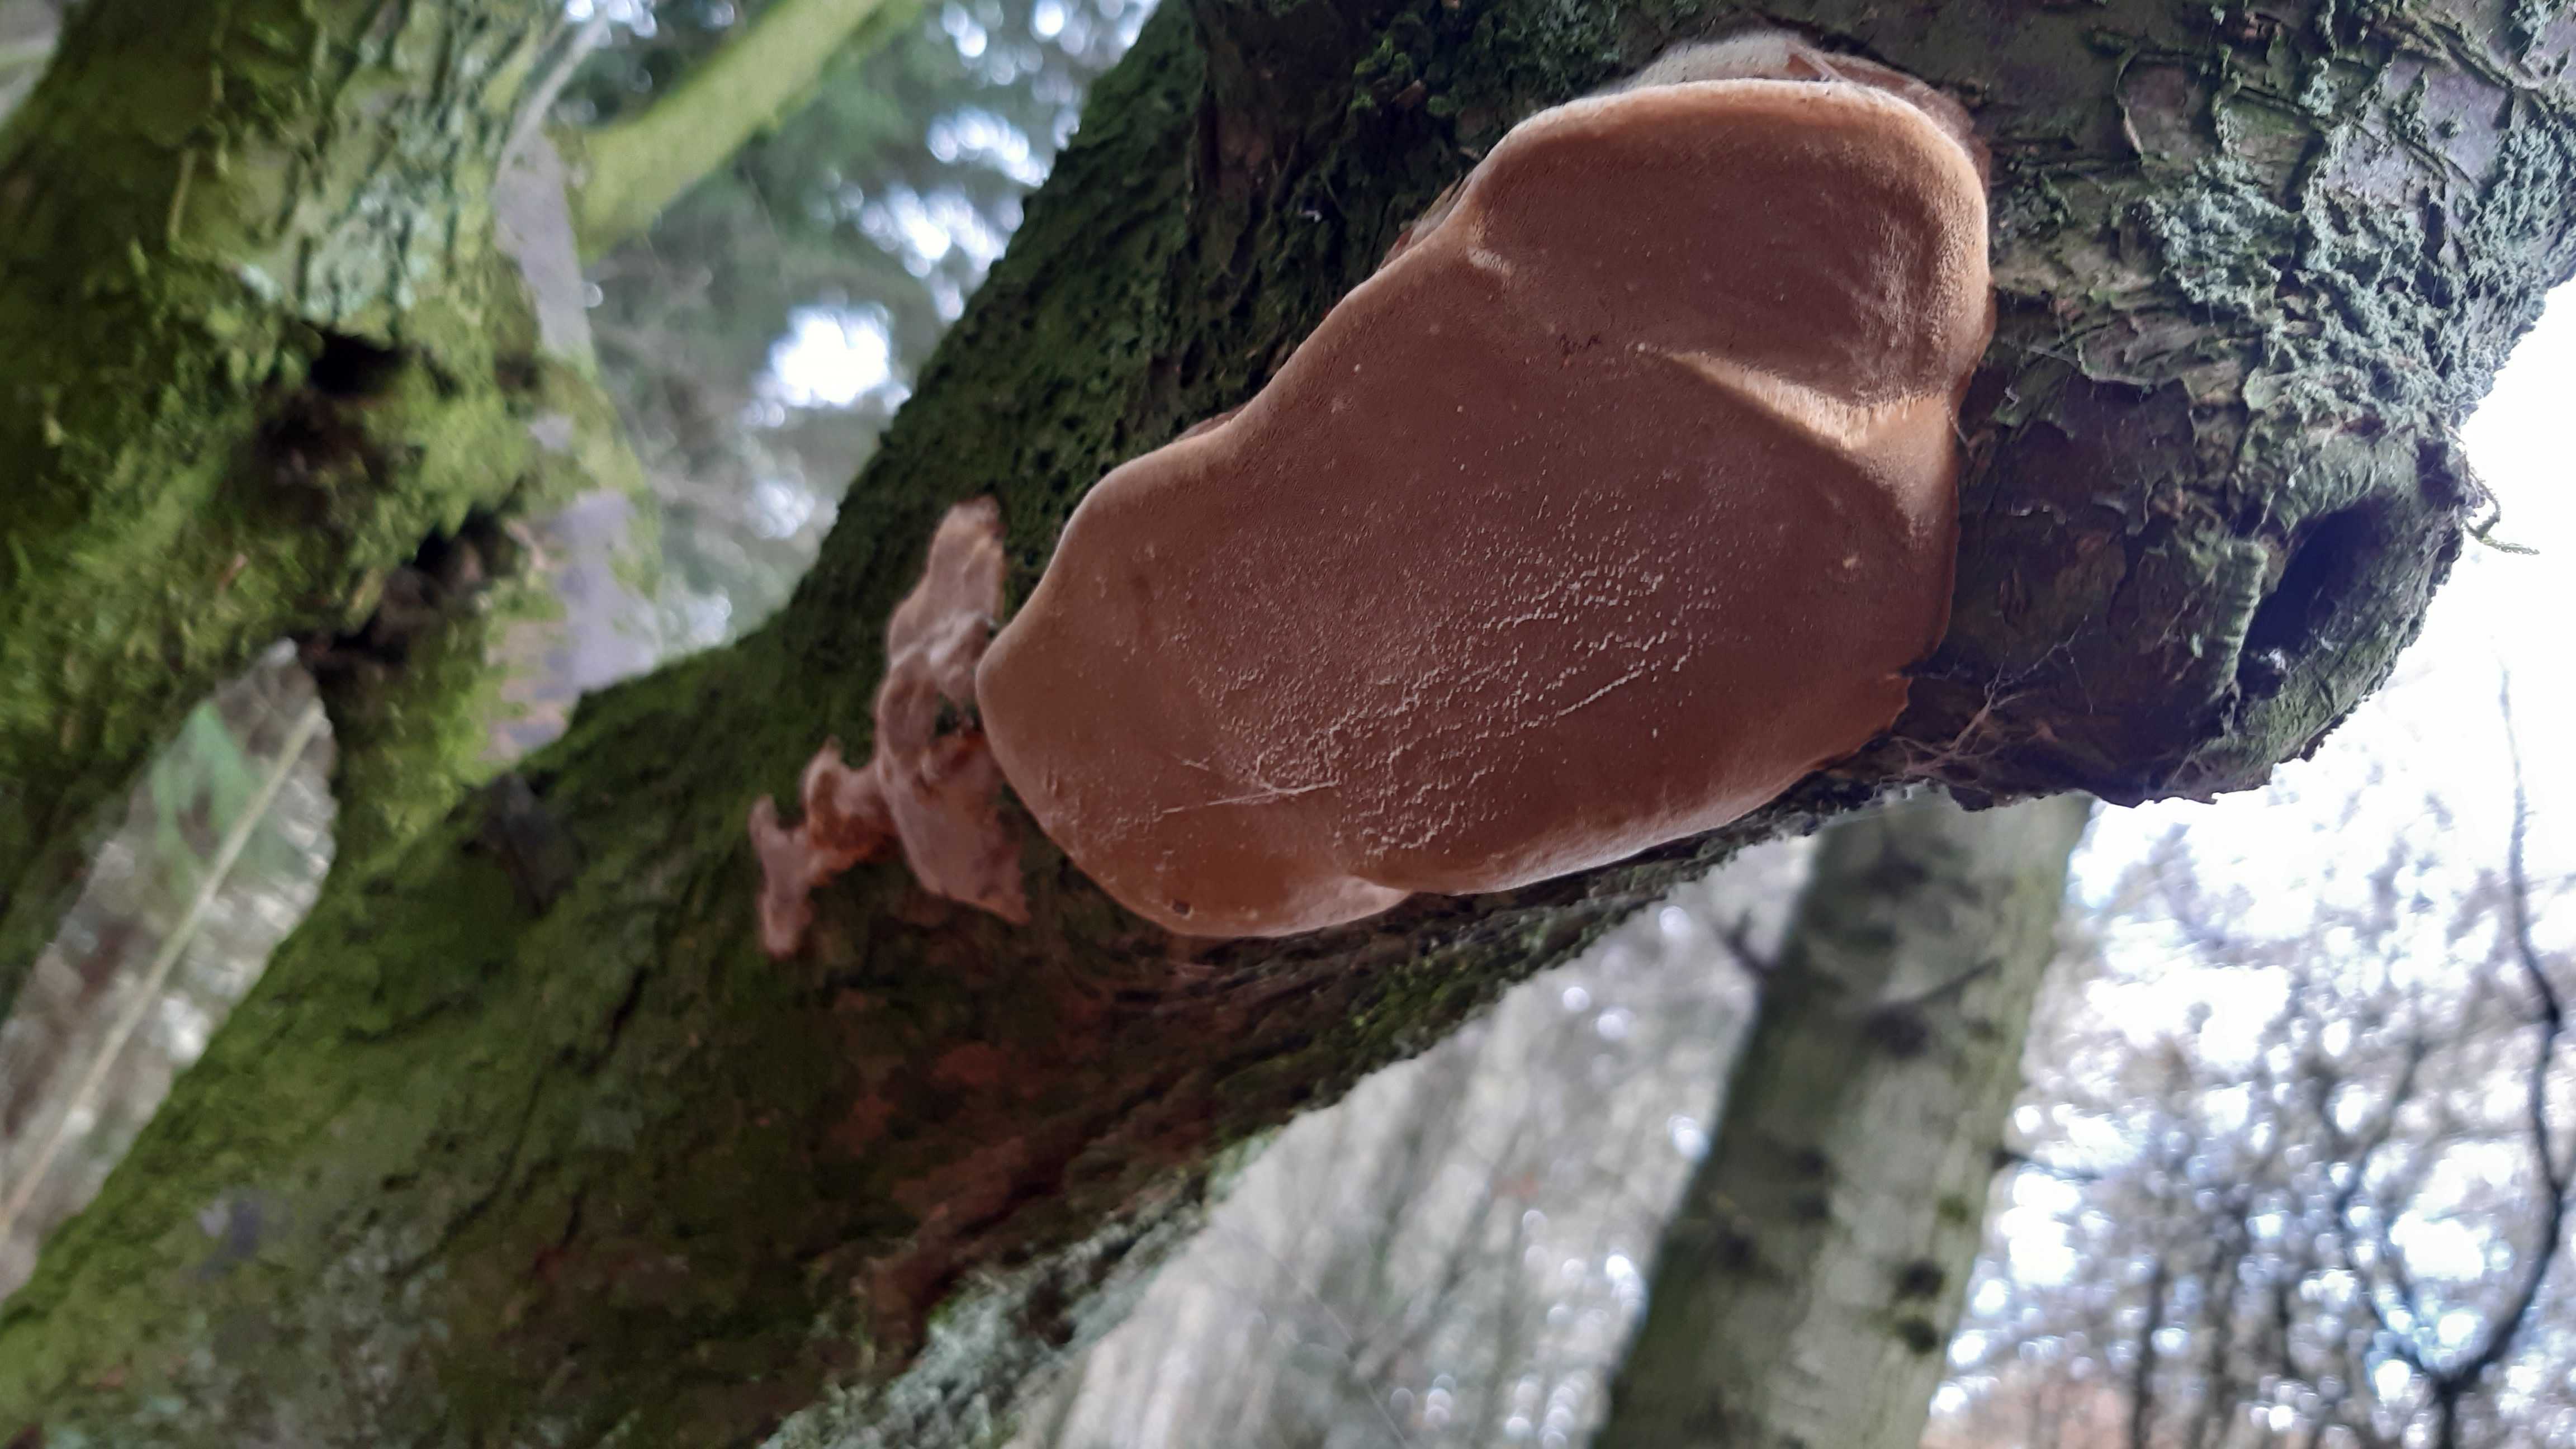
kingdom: Fungi
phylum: Basidiomycota
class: Agaricomycetes
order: Hymenochaetales
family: Hymenochaetaceae
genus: Phellinus
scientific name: Phellinus pomaceus
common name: blomme-ildporesvamp
